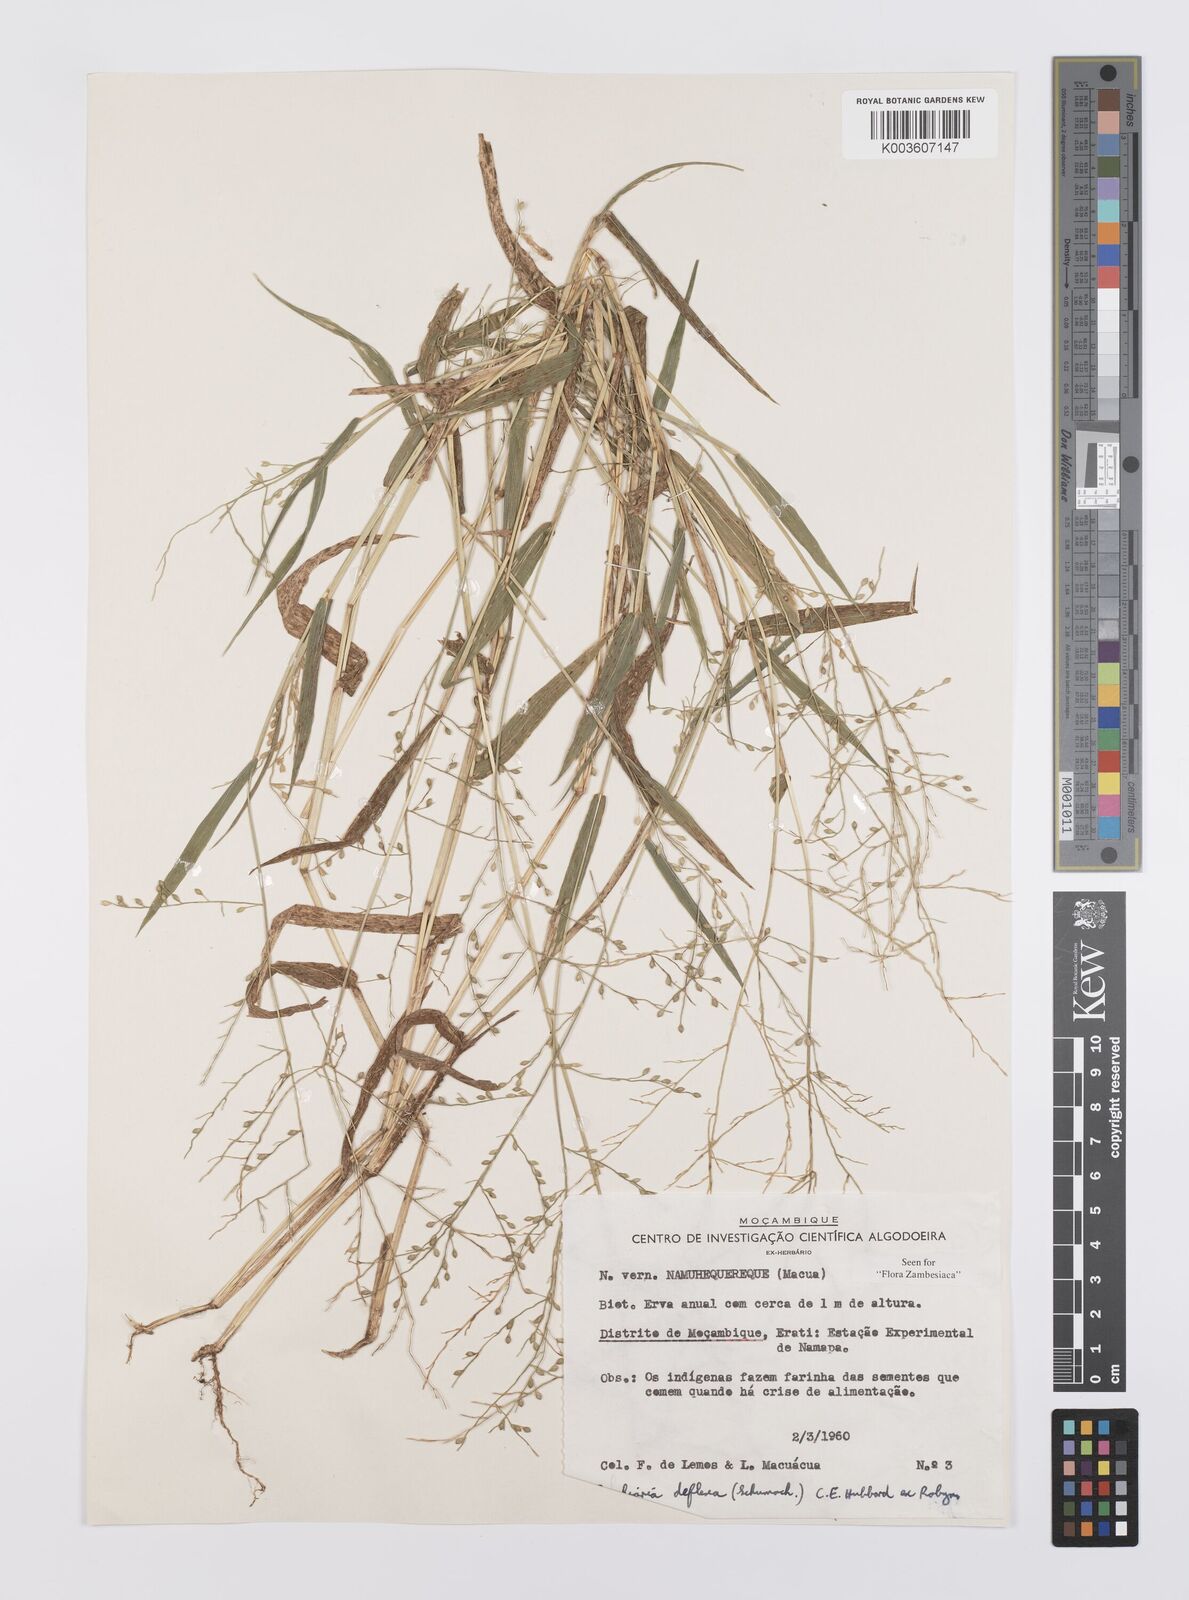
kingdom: Plantae
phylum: Tracheophyta
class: Liliopsida
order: Poales
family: Poaceae
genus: Urochloa
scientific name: Urochloa deflexa
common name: Guinea millet
